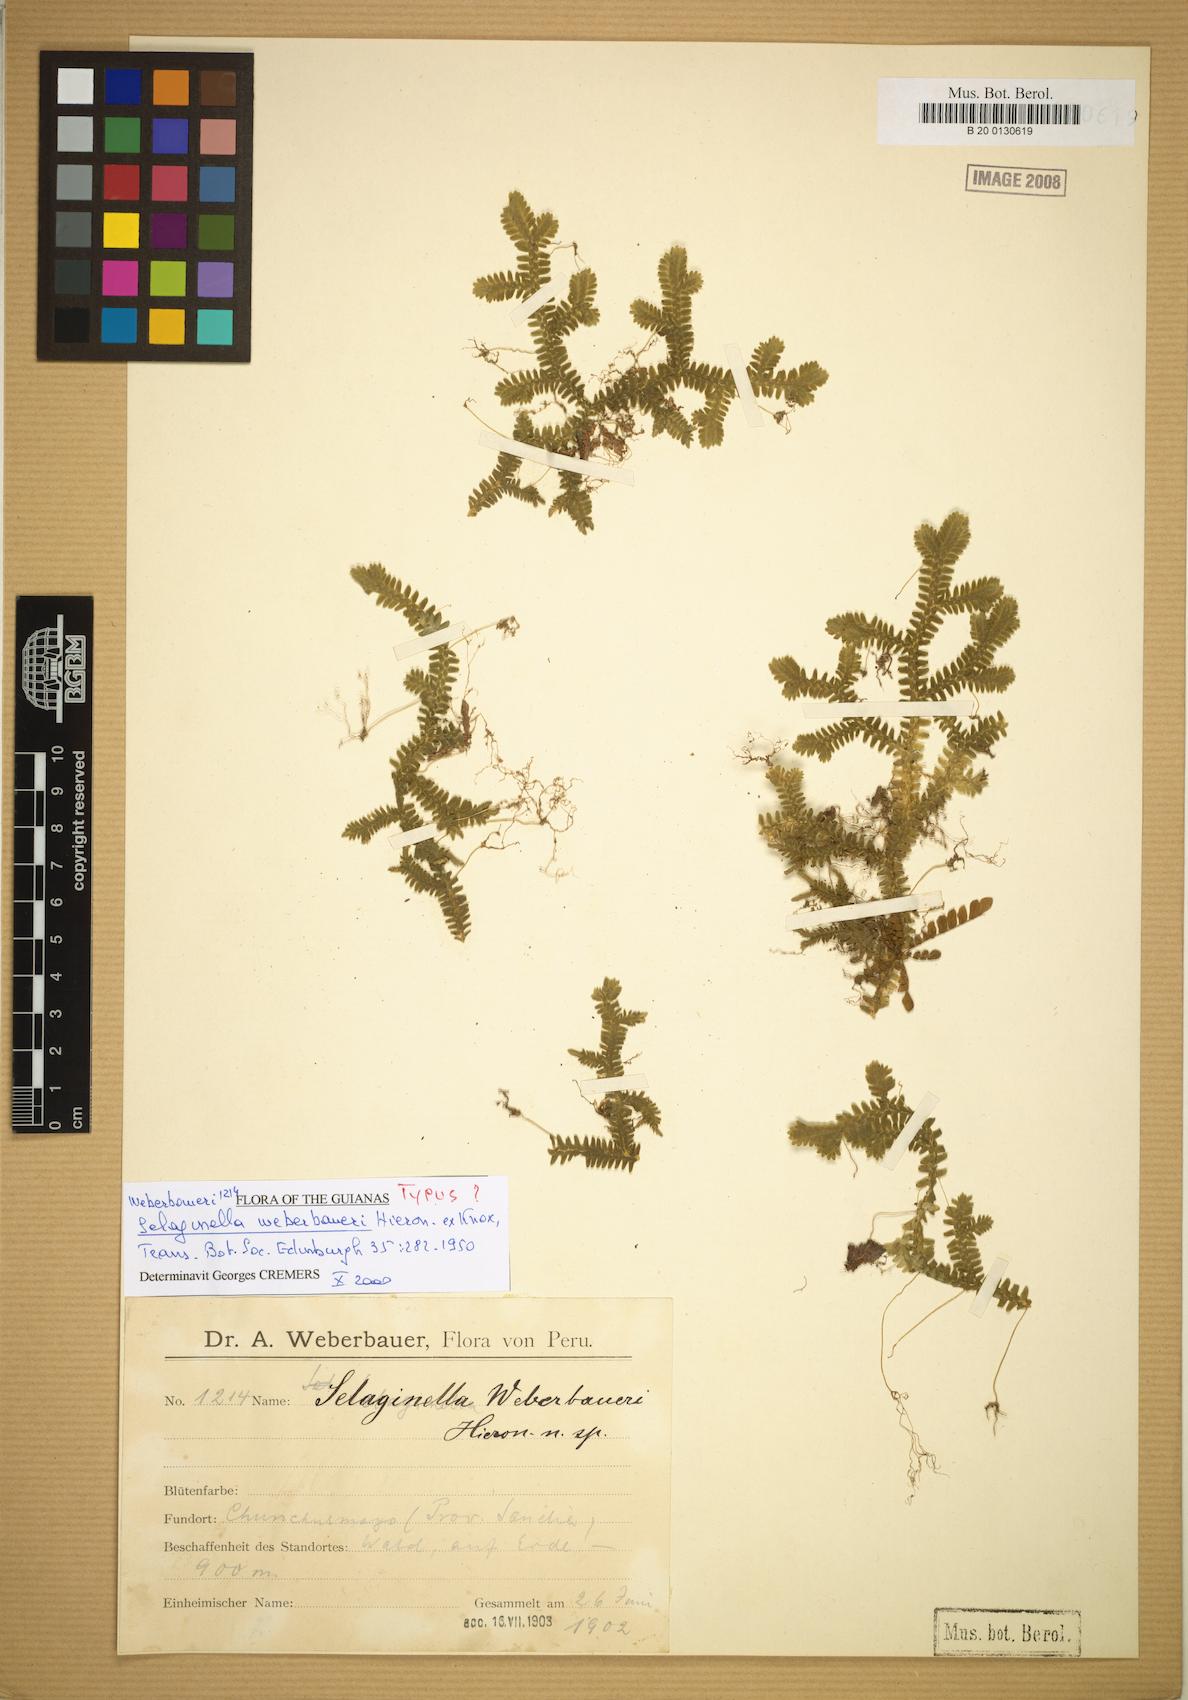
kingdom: Plantae
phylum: Tracheophyta
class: Lycopodiopsida
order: Selaginellales
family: Selaginellaceae
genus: Selaginella
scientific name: Selaginella truncata
